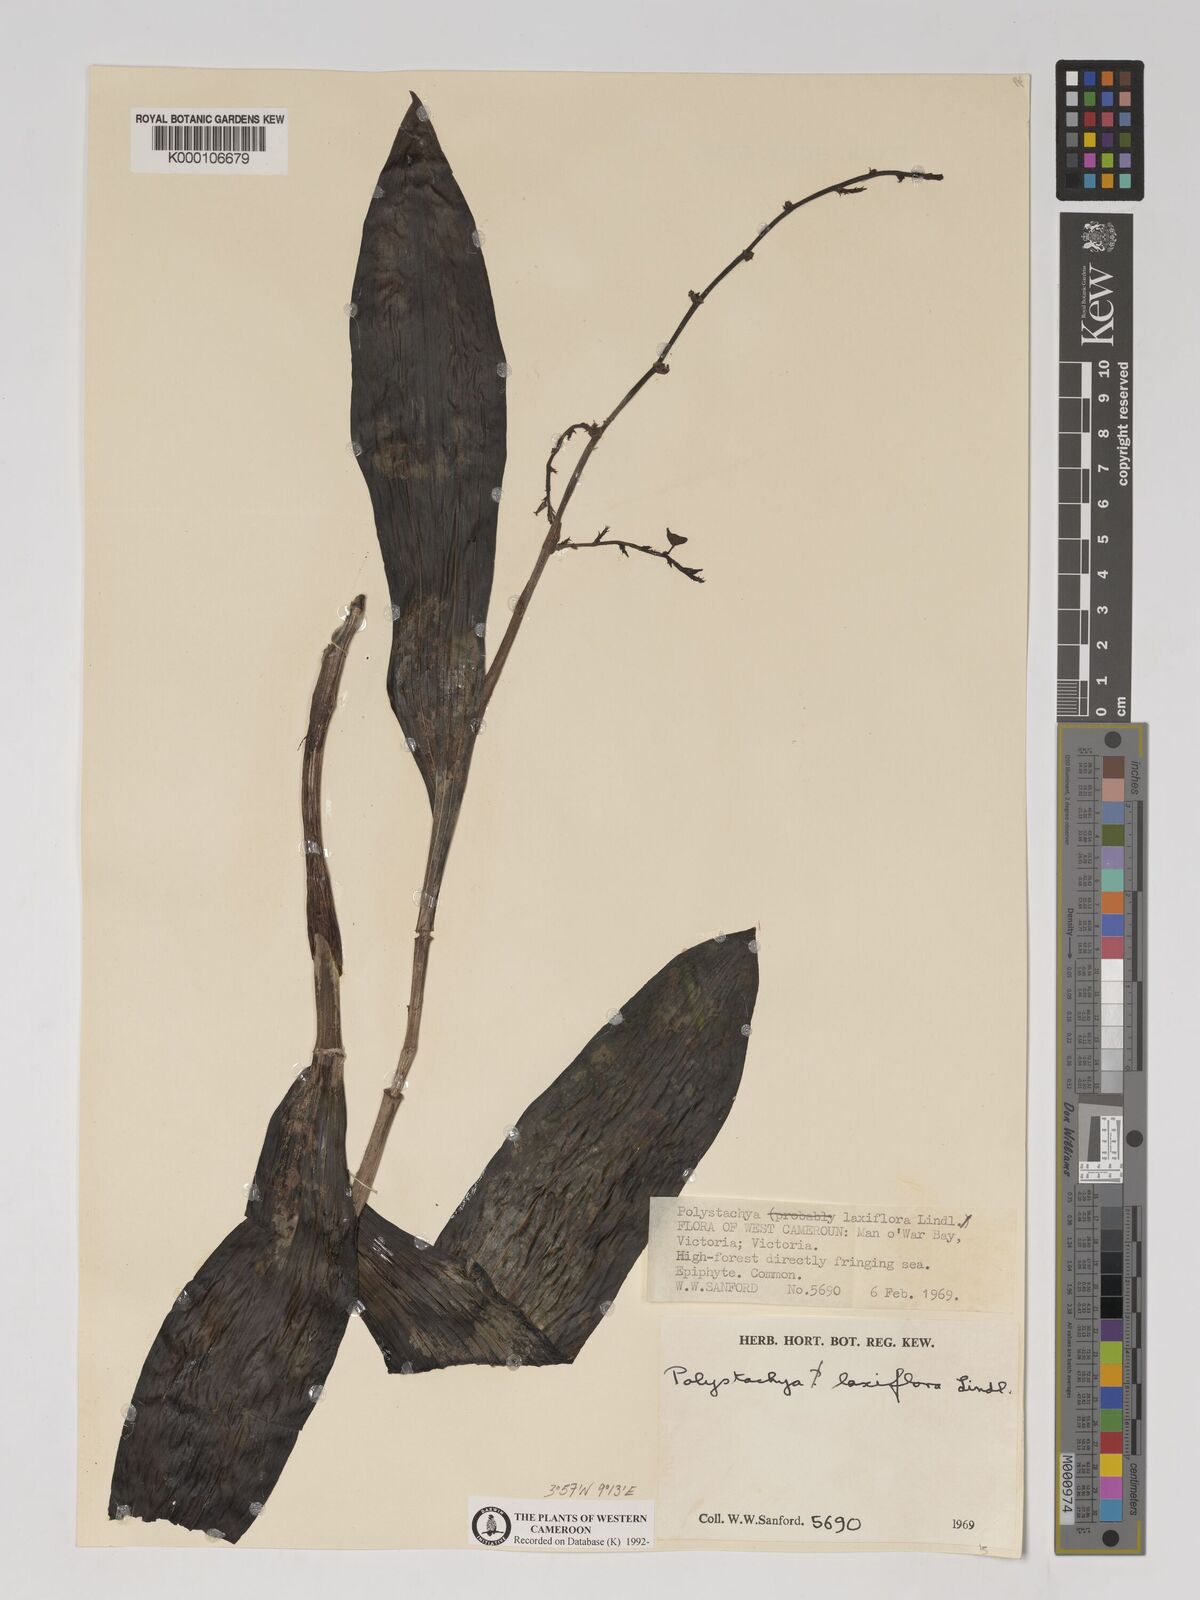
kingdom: Plantae
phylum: Tracheophyta
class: Liliopsida
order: Asparagales
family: Orchidaceae
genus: Polystachya
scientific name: Polystachya laxiflora
